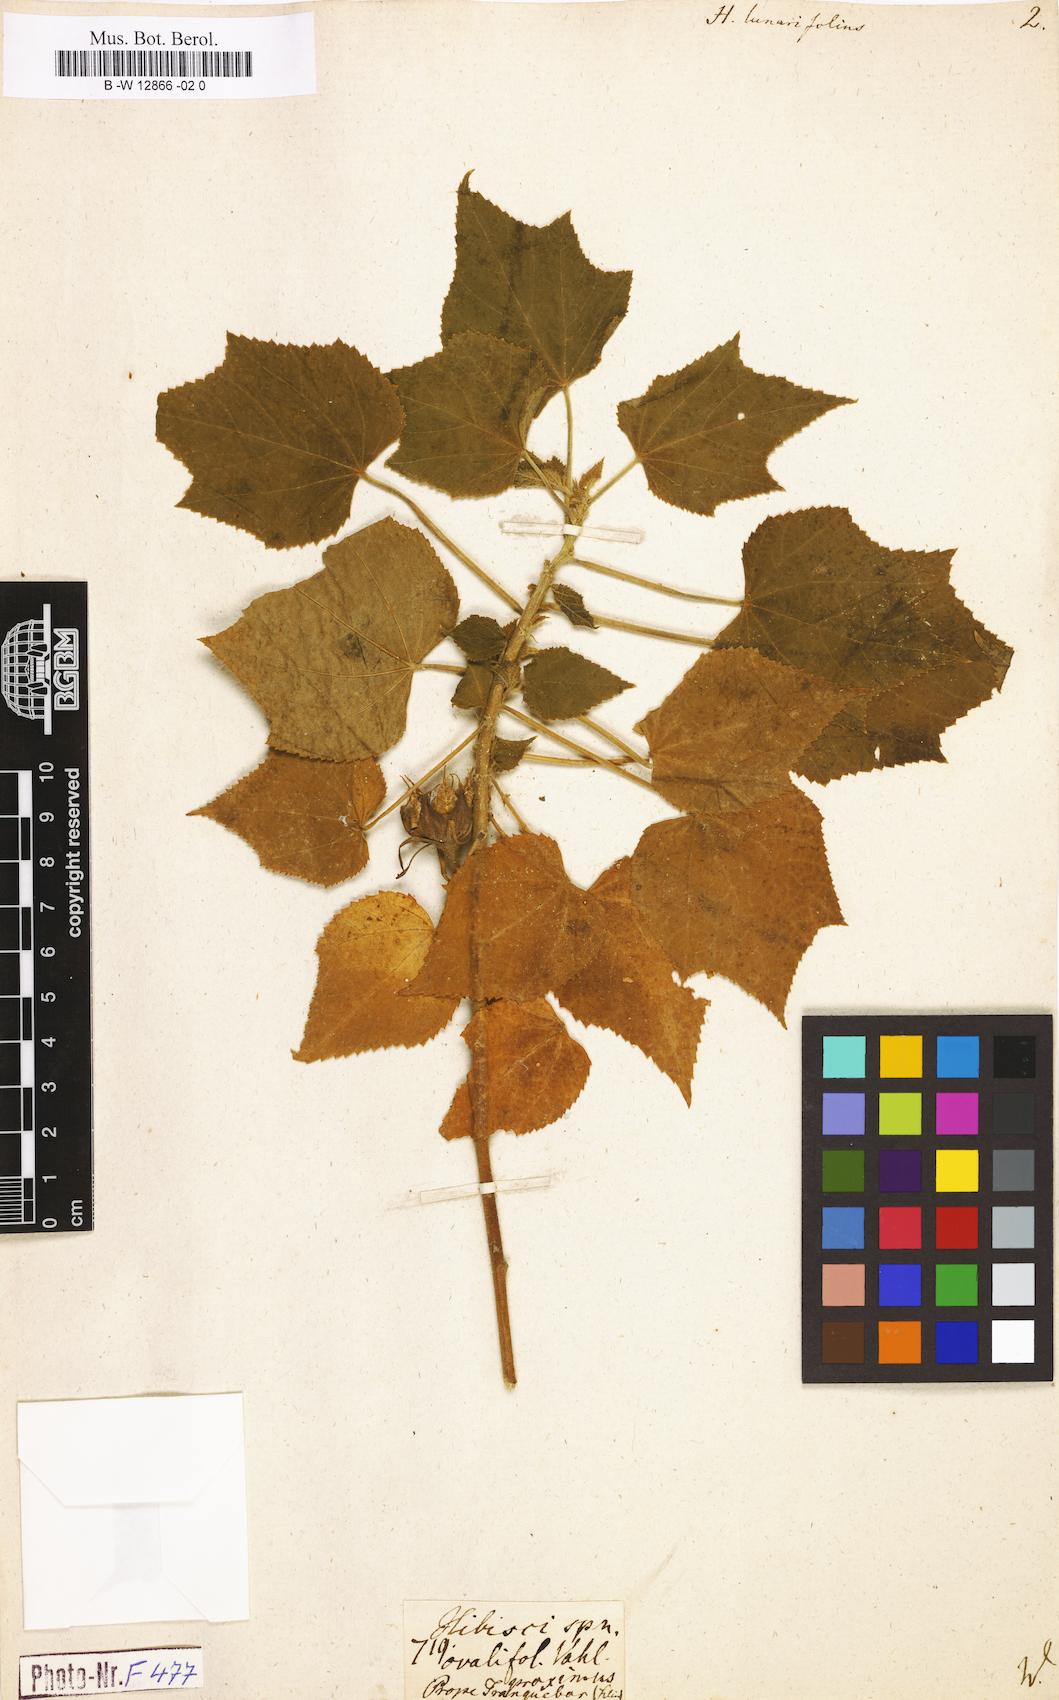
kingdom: Plantae
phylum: Tracheophyta
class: Magnoliopsida
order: Malvales
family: Malvaceae
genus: Hibiscus
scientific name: Hibiscus lunariifolius
